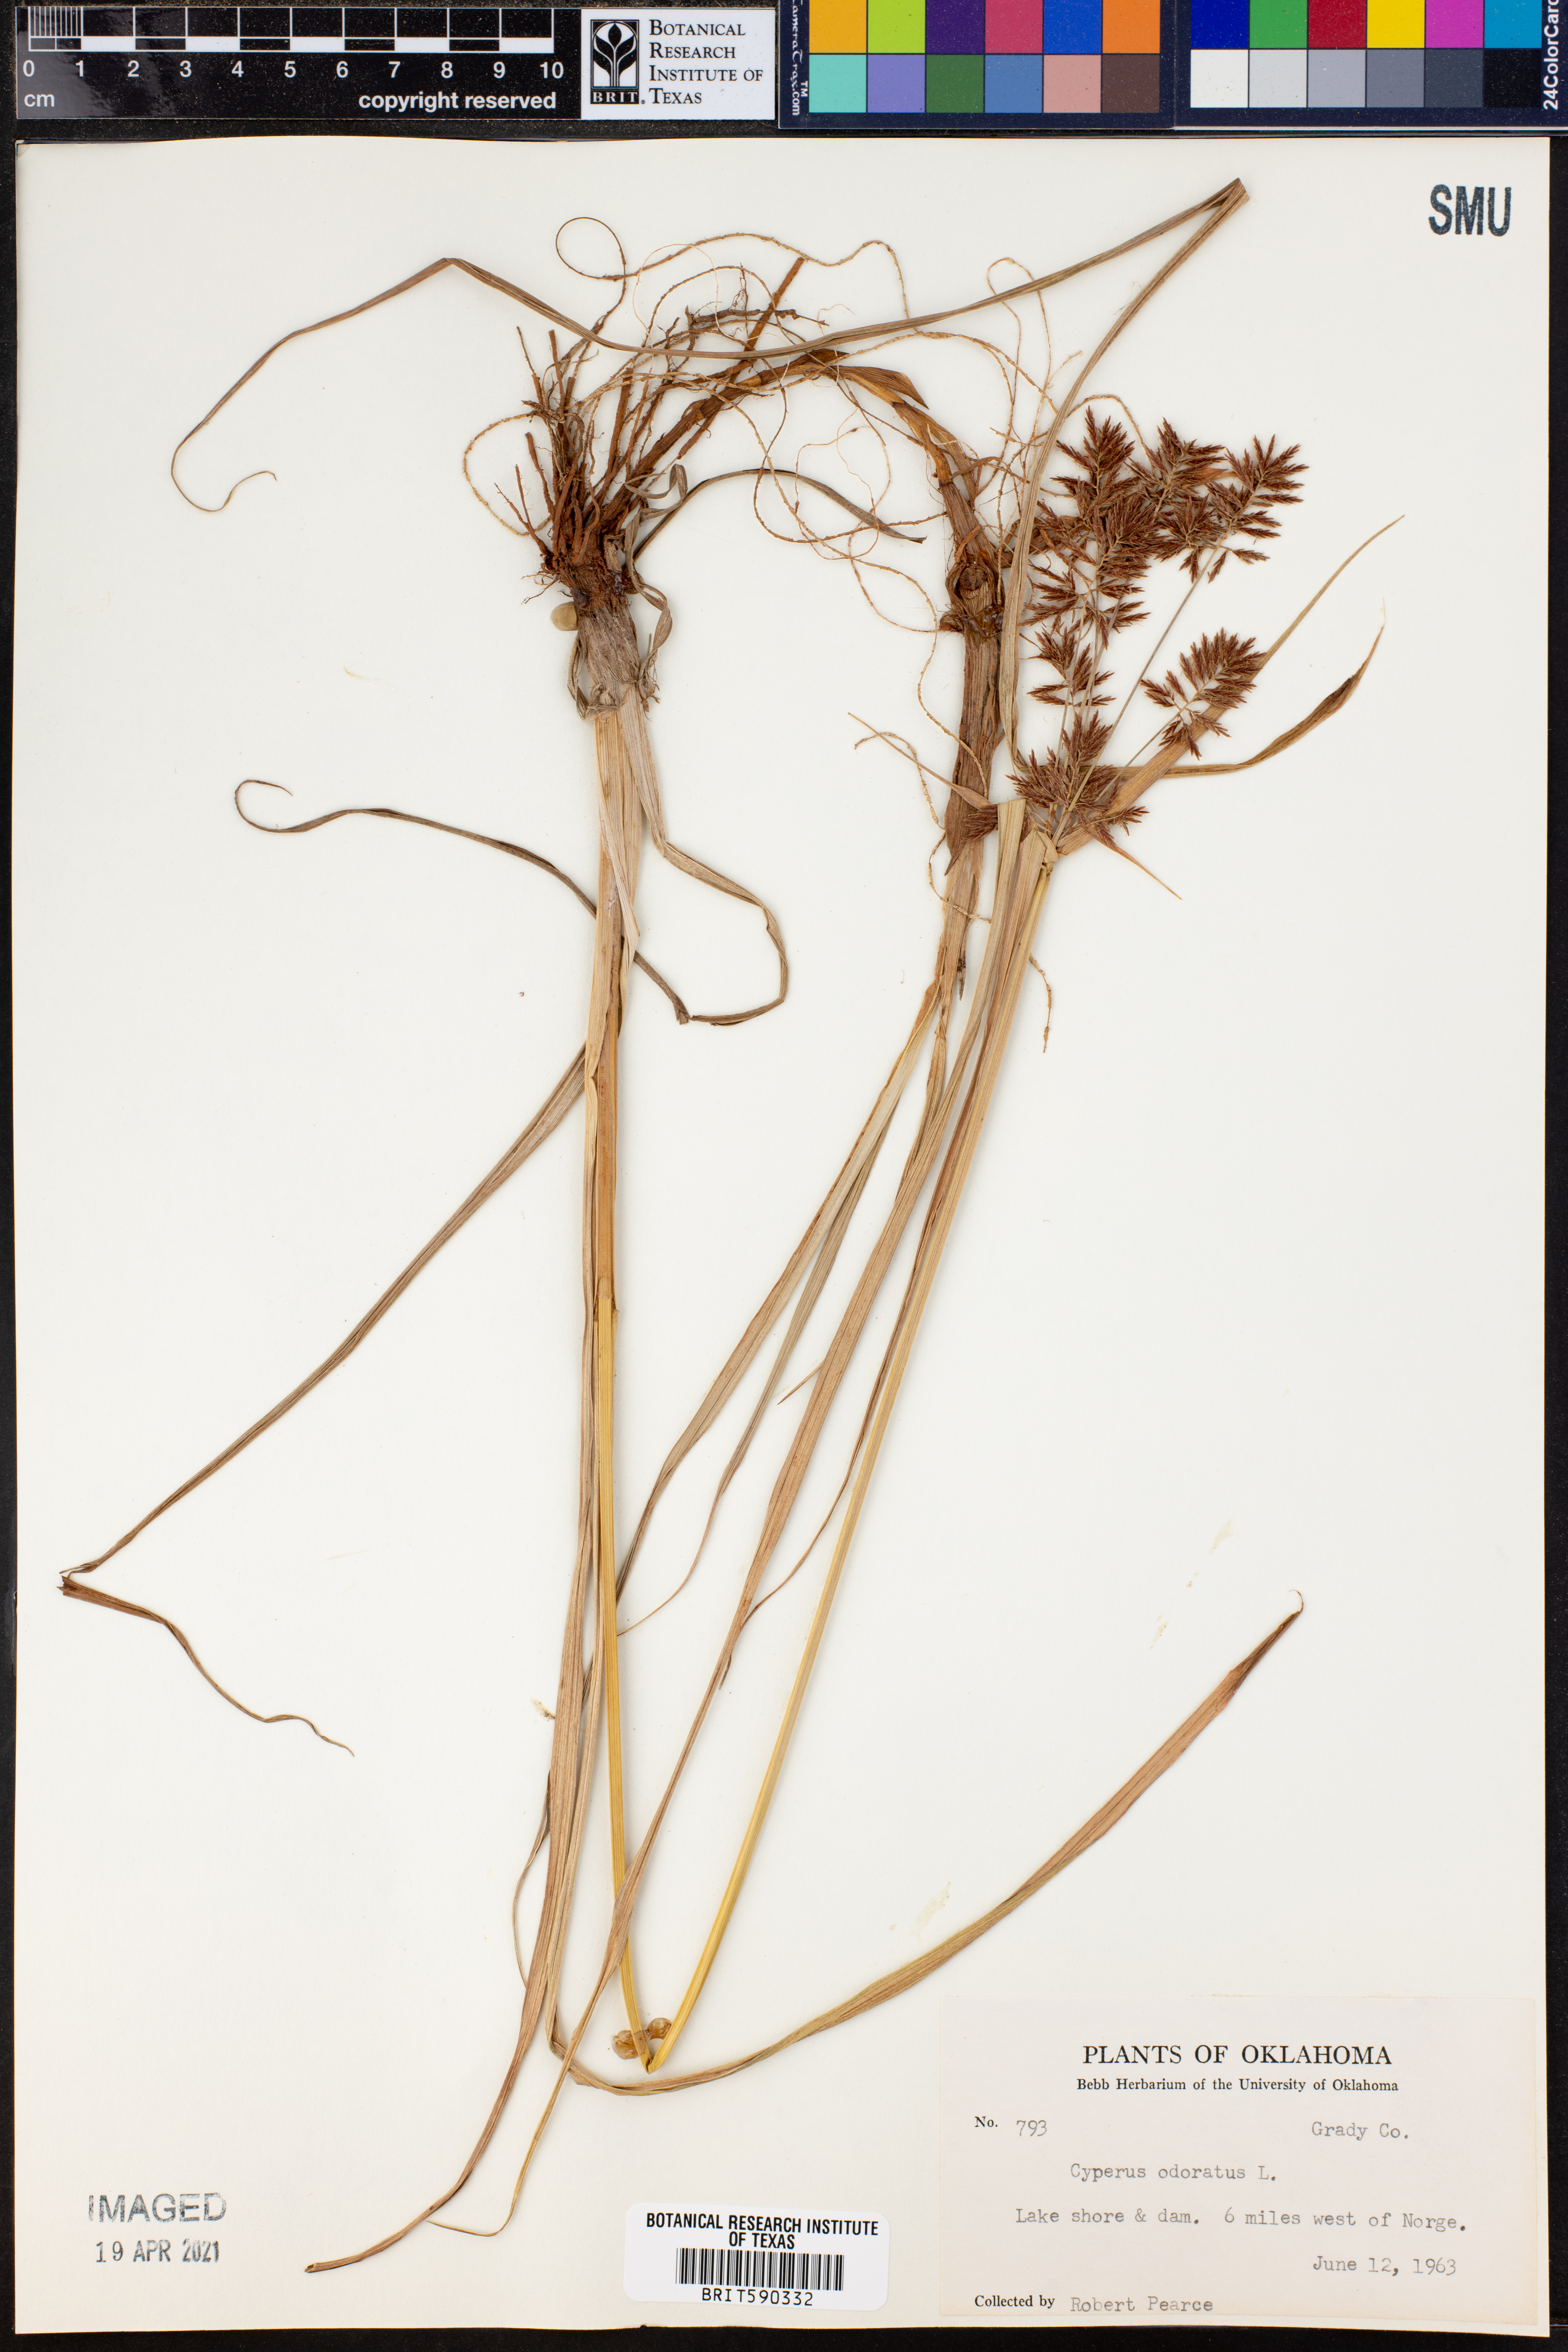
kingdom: Plantae
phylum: Tracheophyta
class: Liliopsida
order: Poales
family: Cyperaceae
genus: Cyperus
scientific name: Cyperus odoratus
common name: Fragrant flatsedge
